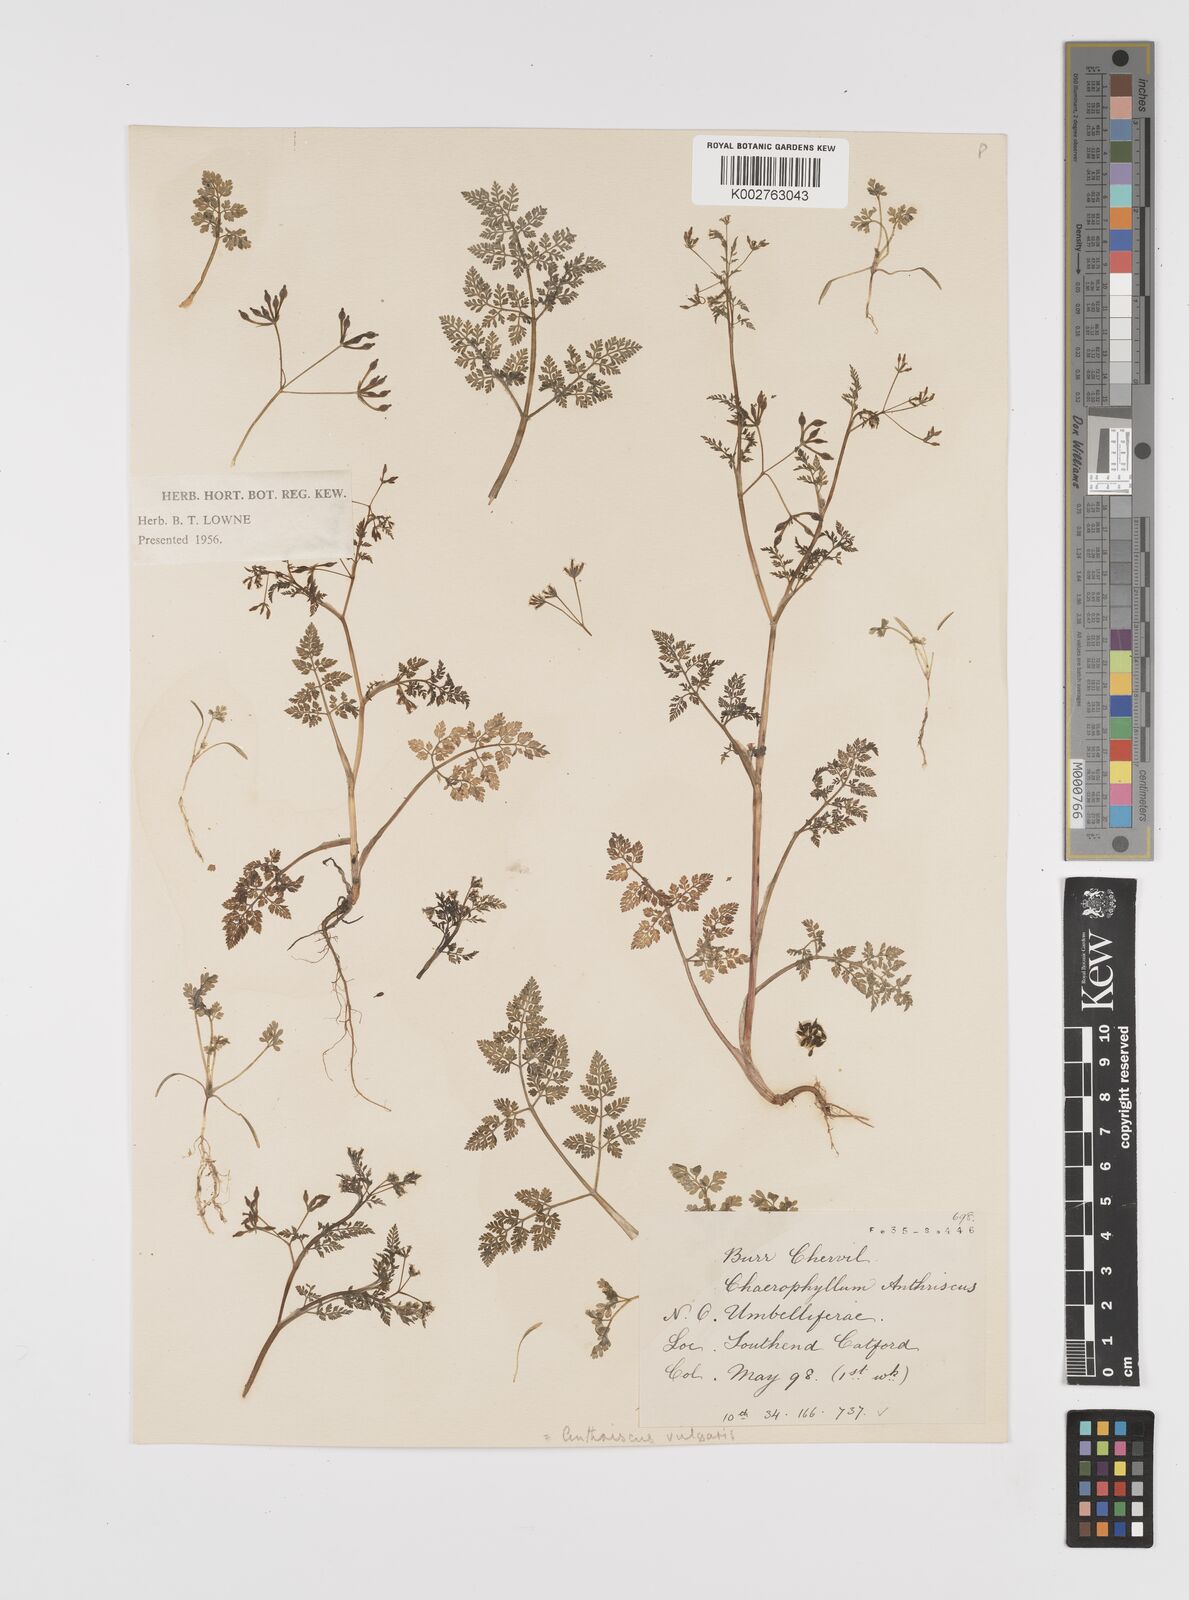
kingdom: Plantae
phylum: Tracheophyta
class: Magnoliopsida
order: Apiales
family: Apiaceae
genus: Anthriscus
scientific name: Anthriscus caucalis
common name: Bur chervil
